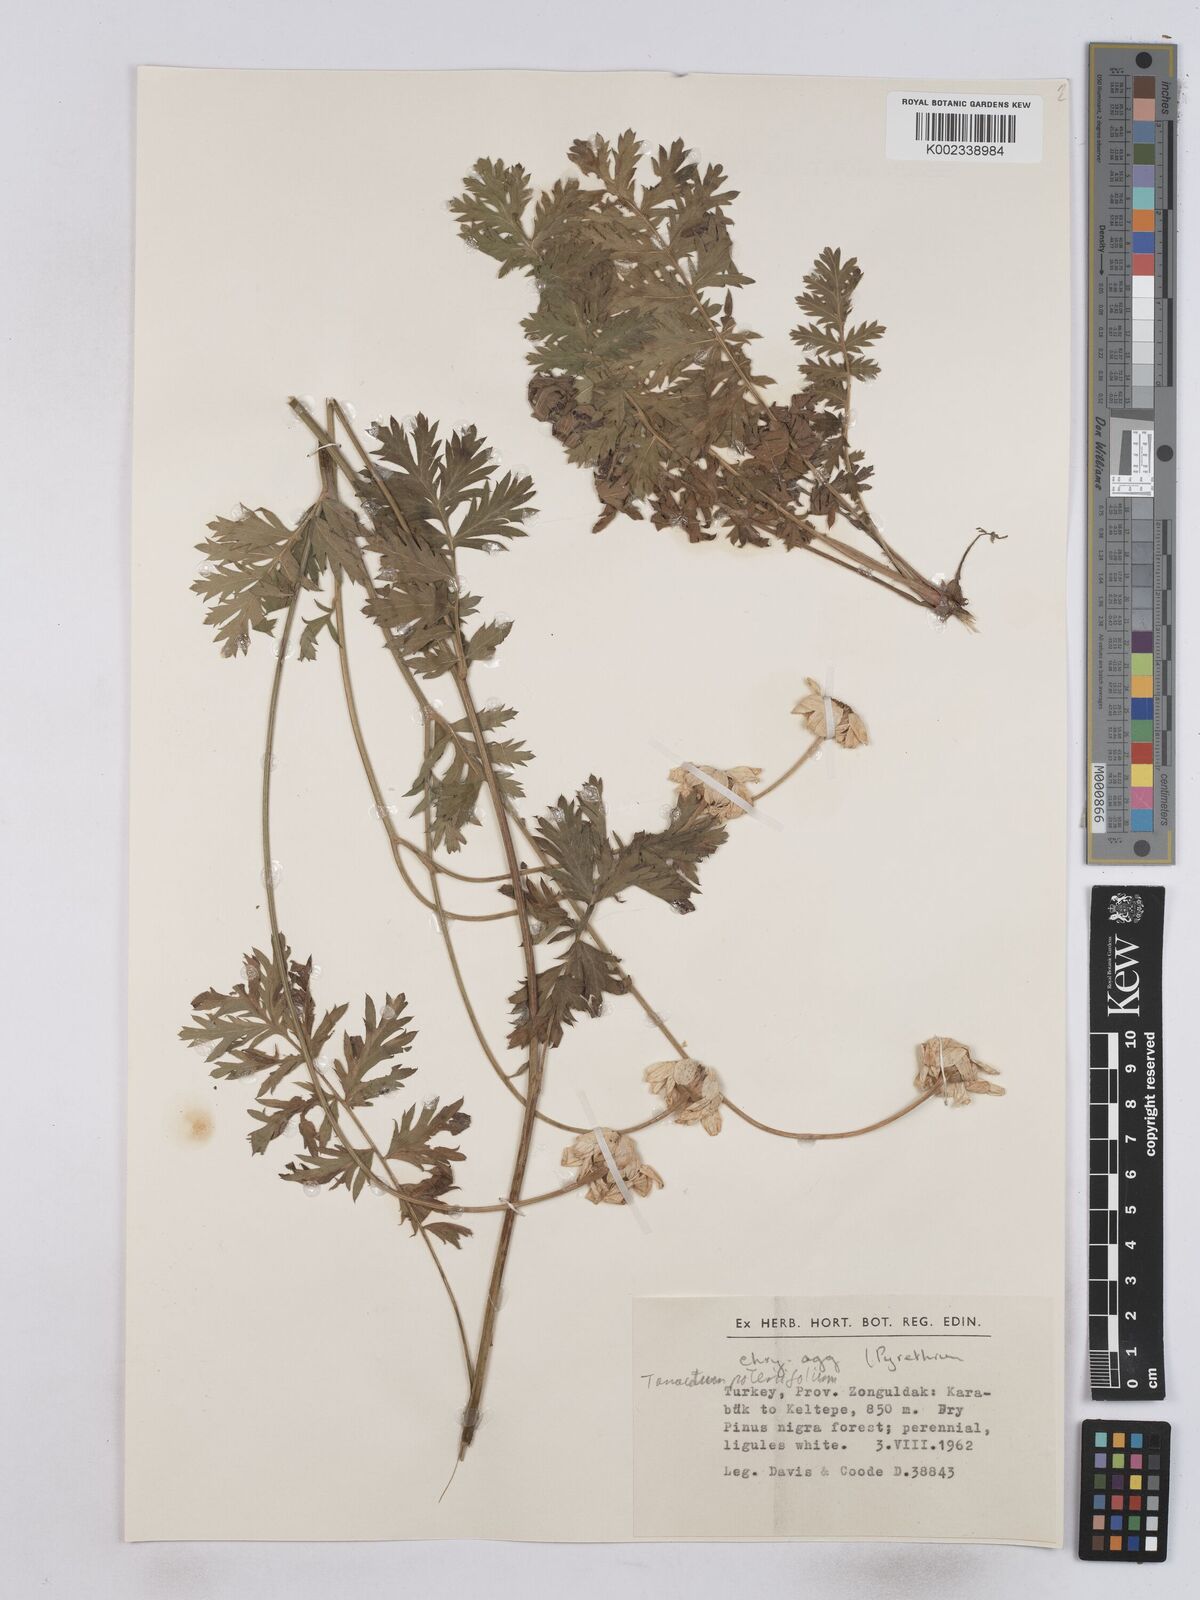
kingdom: Plantae
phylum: Tracheophyta
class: Magnoliopsida
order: Asterales
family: Asteraceae
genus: Tanacetum
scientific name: Tanacetum poteriifolium
